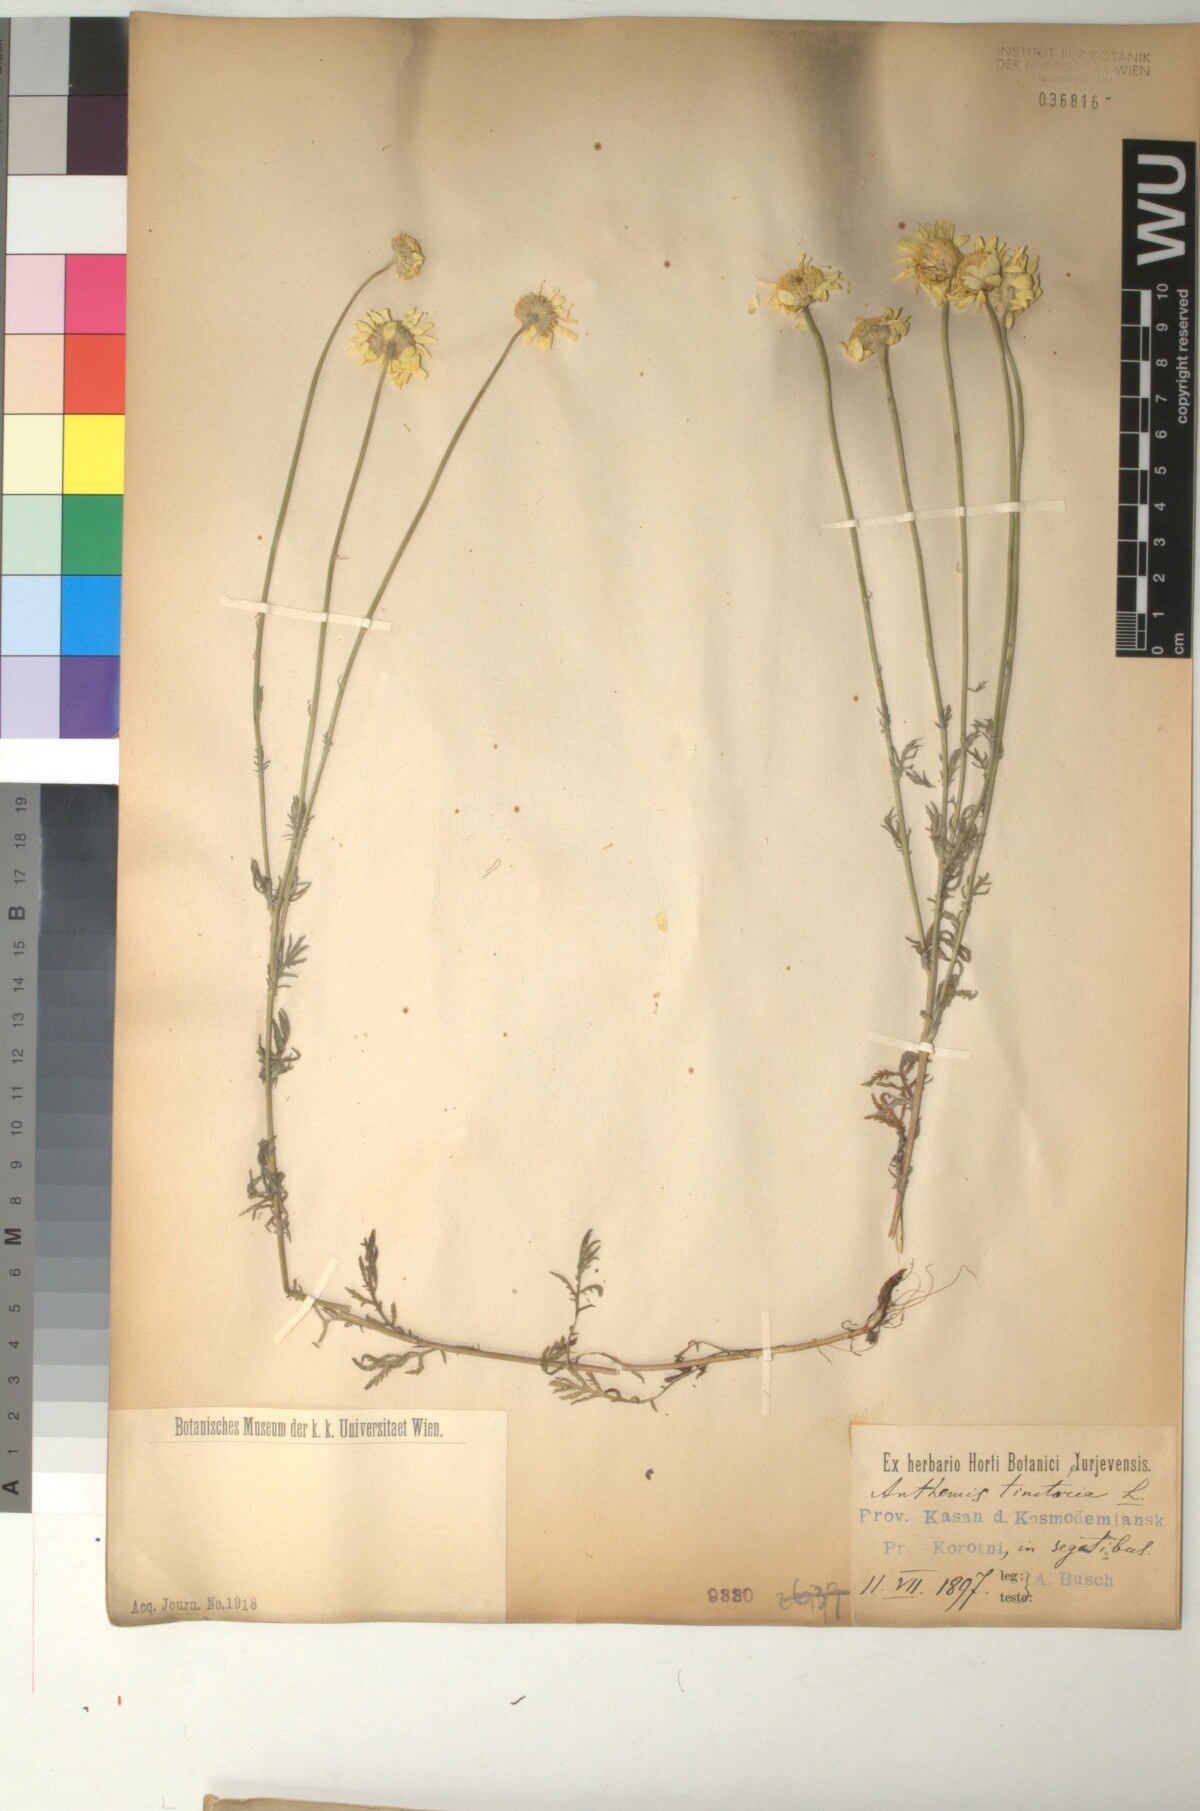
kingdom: Plantae
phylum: Tracheophyta
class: Magnoliopsida
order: Asterales
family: Asteraceae
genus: Cota
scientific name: Cota tinctoria
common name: Golden chamomile
